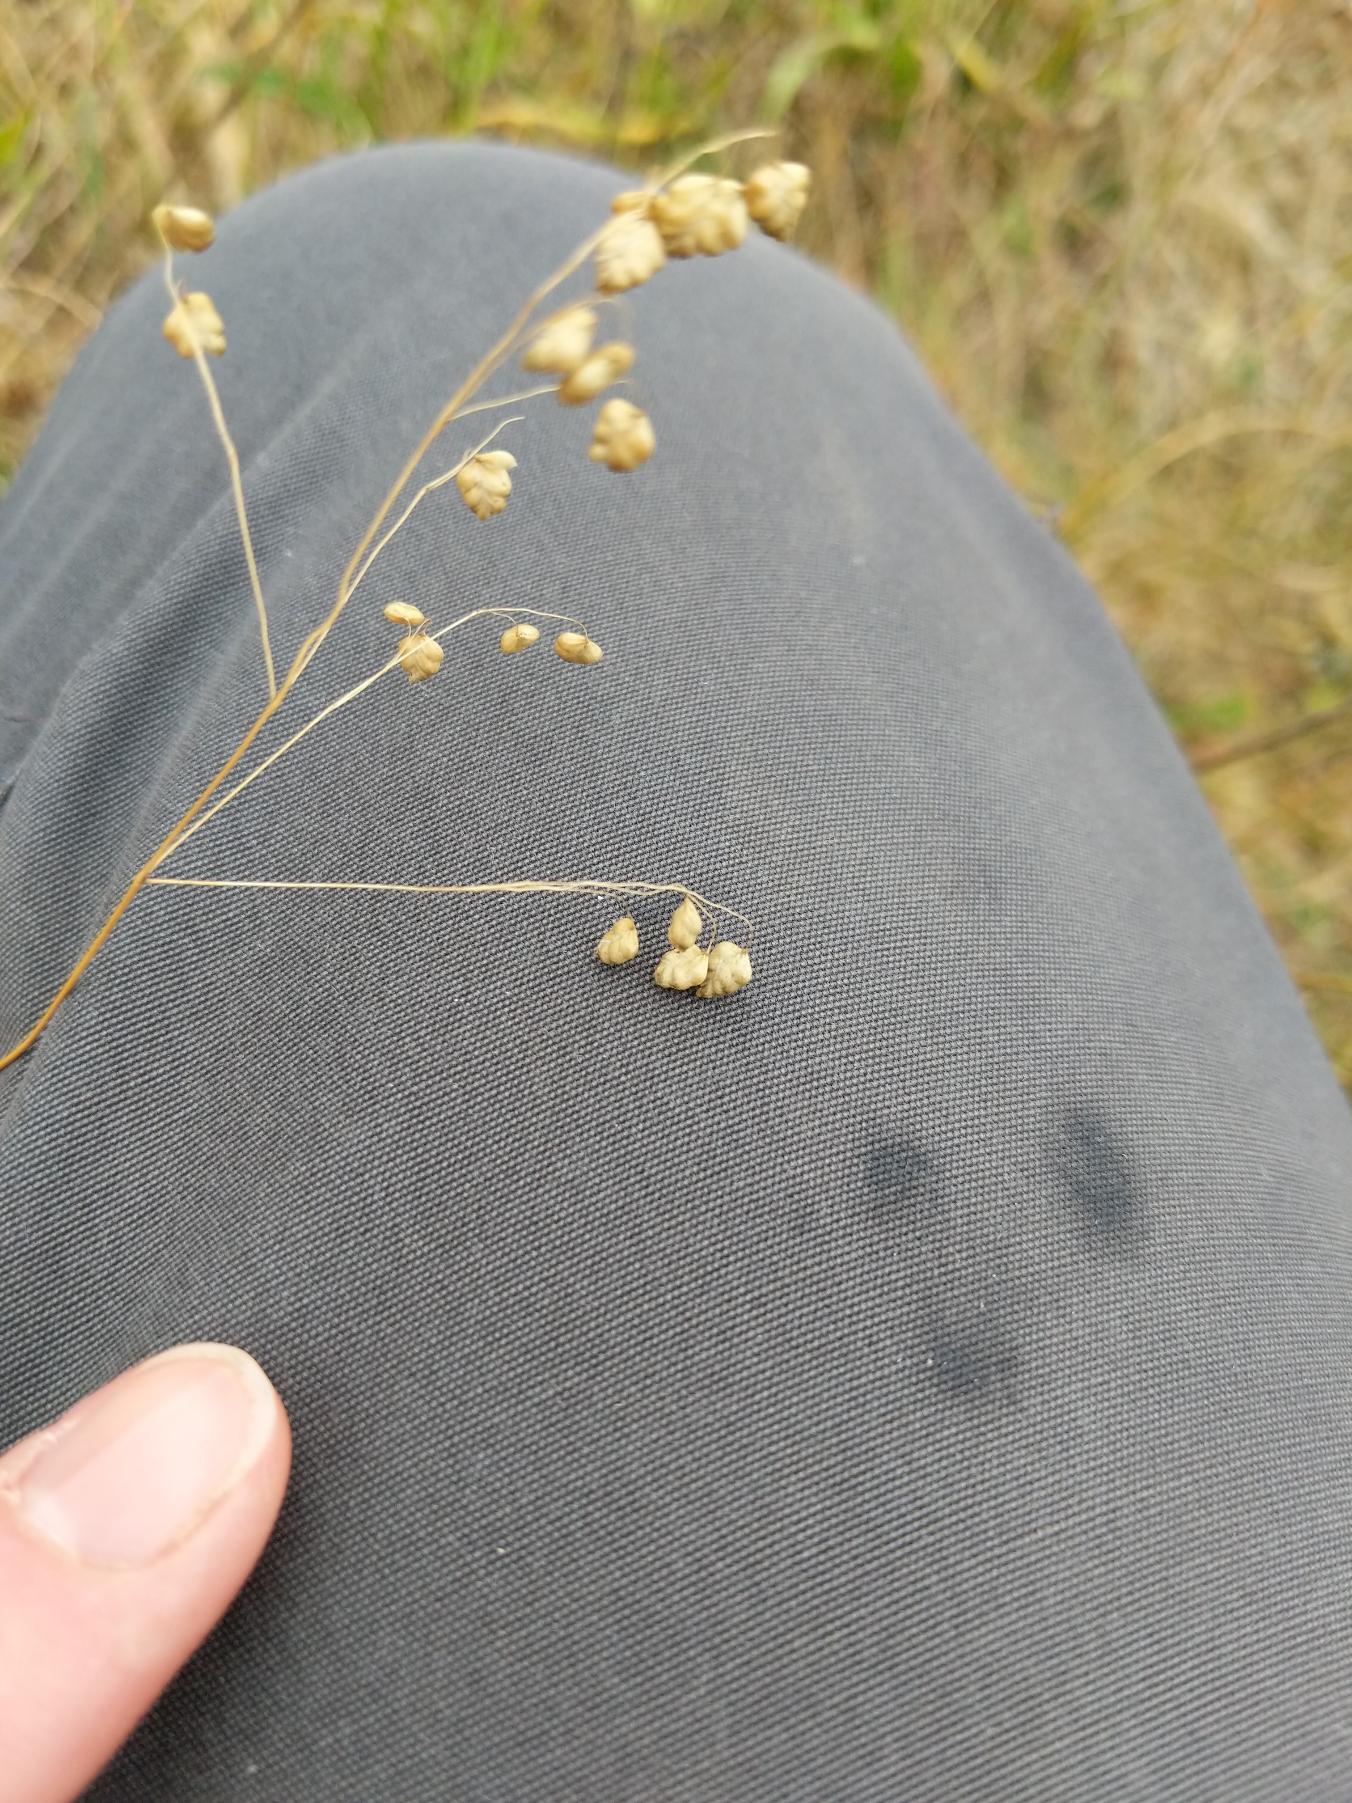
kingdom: Plantae
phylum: Tracheophyta
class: Liliopsida
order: Poales
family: Poaceae
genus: Briza
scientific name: Briza media
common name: Hjertegræs
